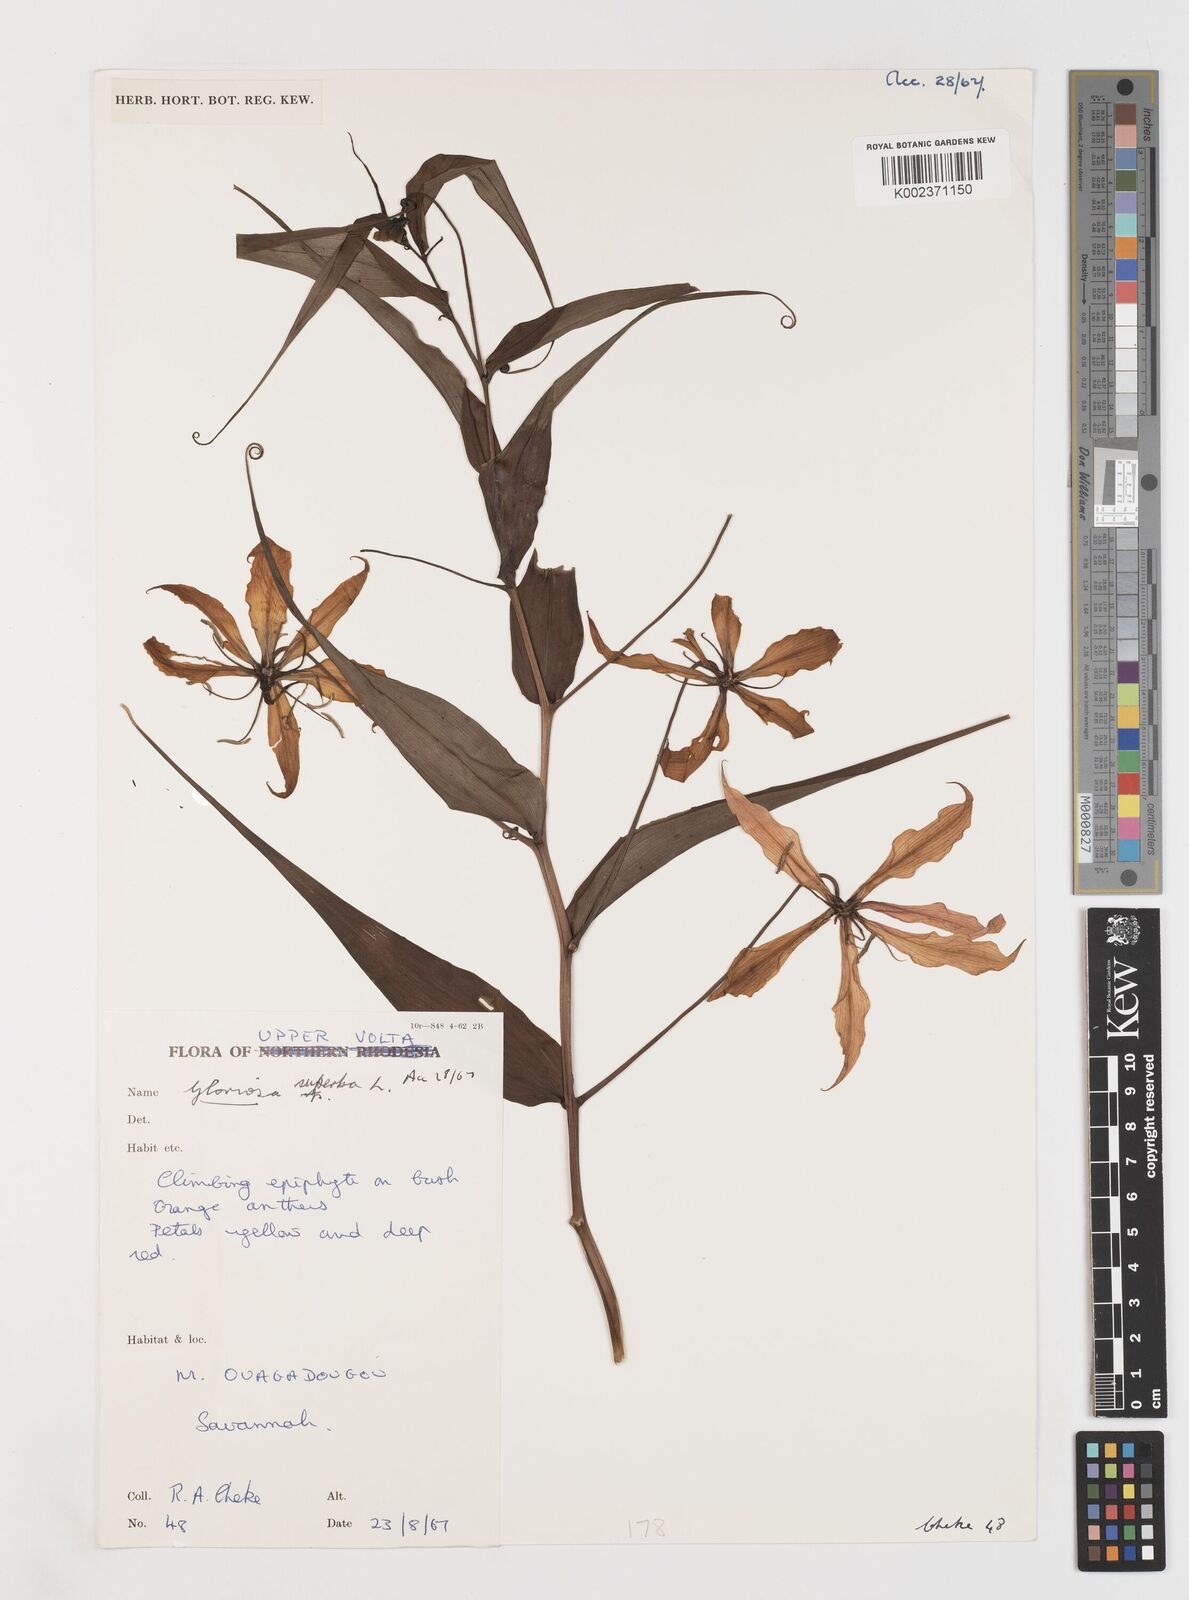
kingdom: Plantae
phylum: Tracheophyta
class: Liliopsida
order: Liliales
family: Colchicaceae
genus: Gloriosa
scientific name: Gloriosa simplex
